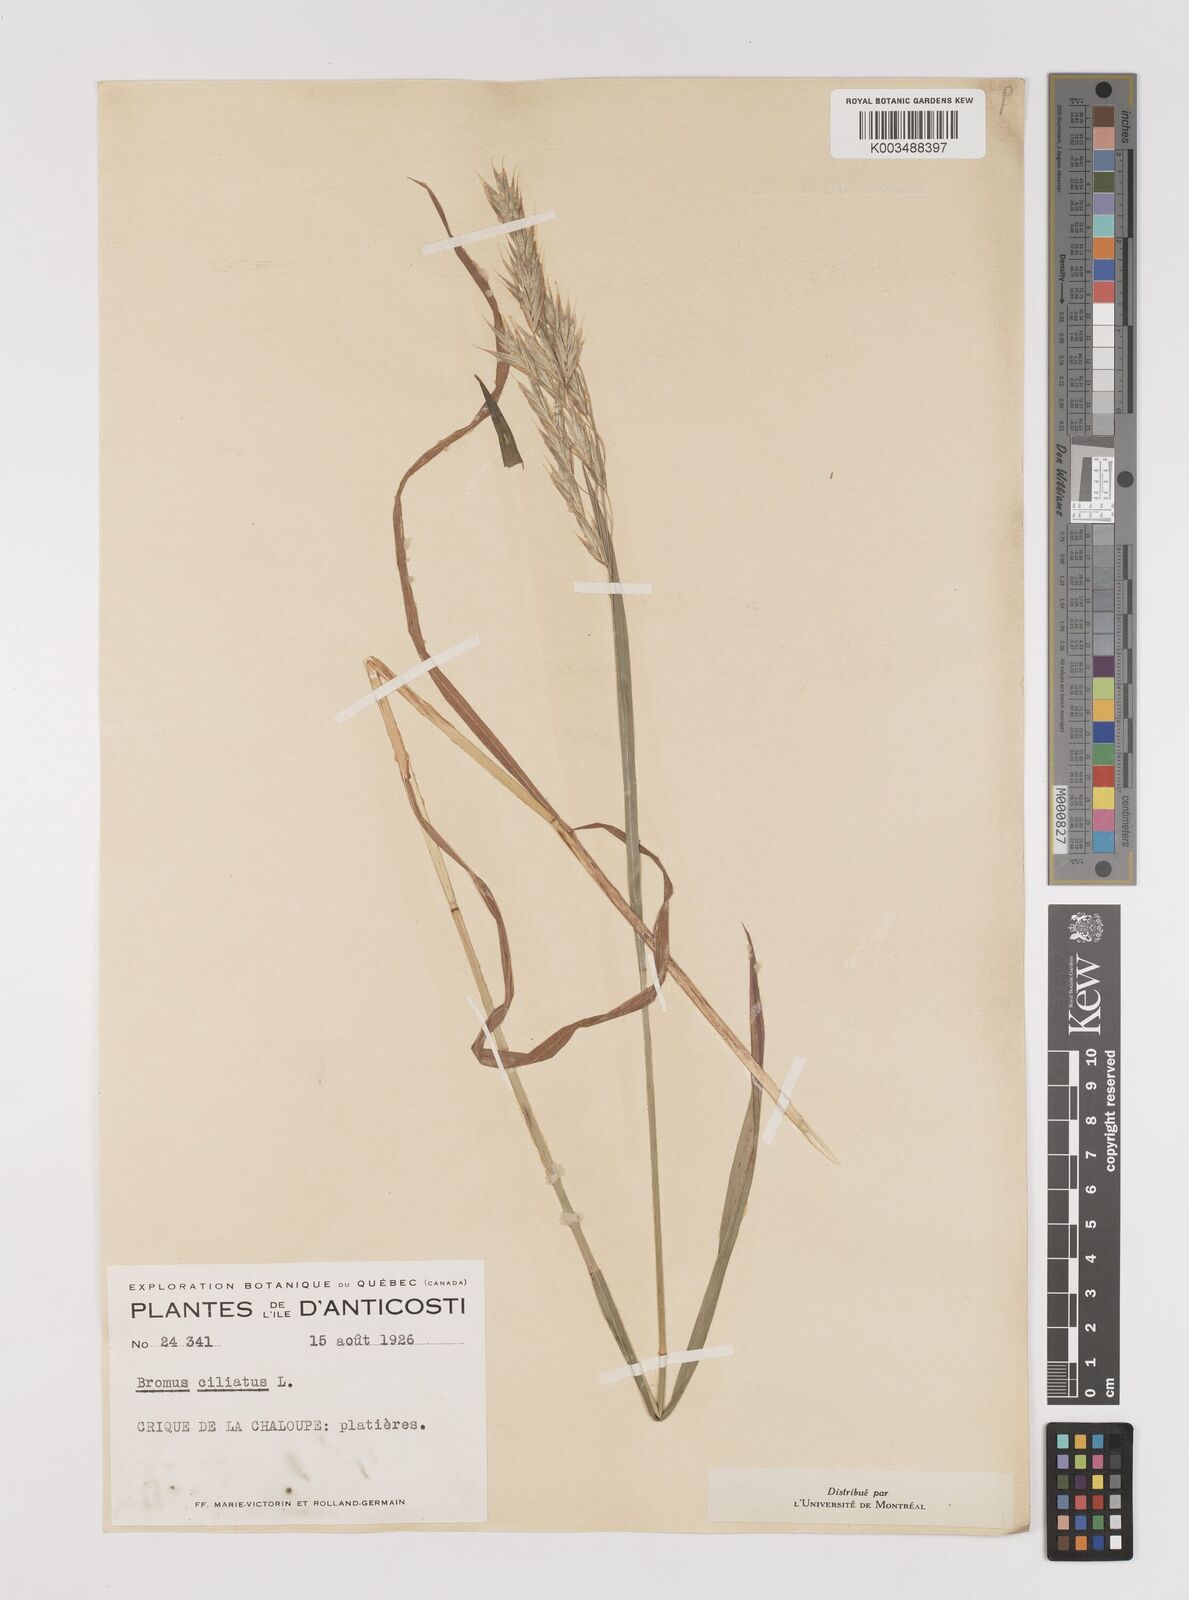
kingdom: Plantae
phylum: Tracheophyta
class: Liliopsida
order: Poales
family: Poaceae
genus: Bromus
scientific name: Bromus ciliatus
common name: Fringe brome
